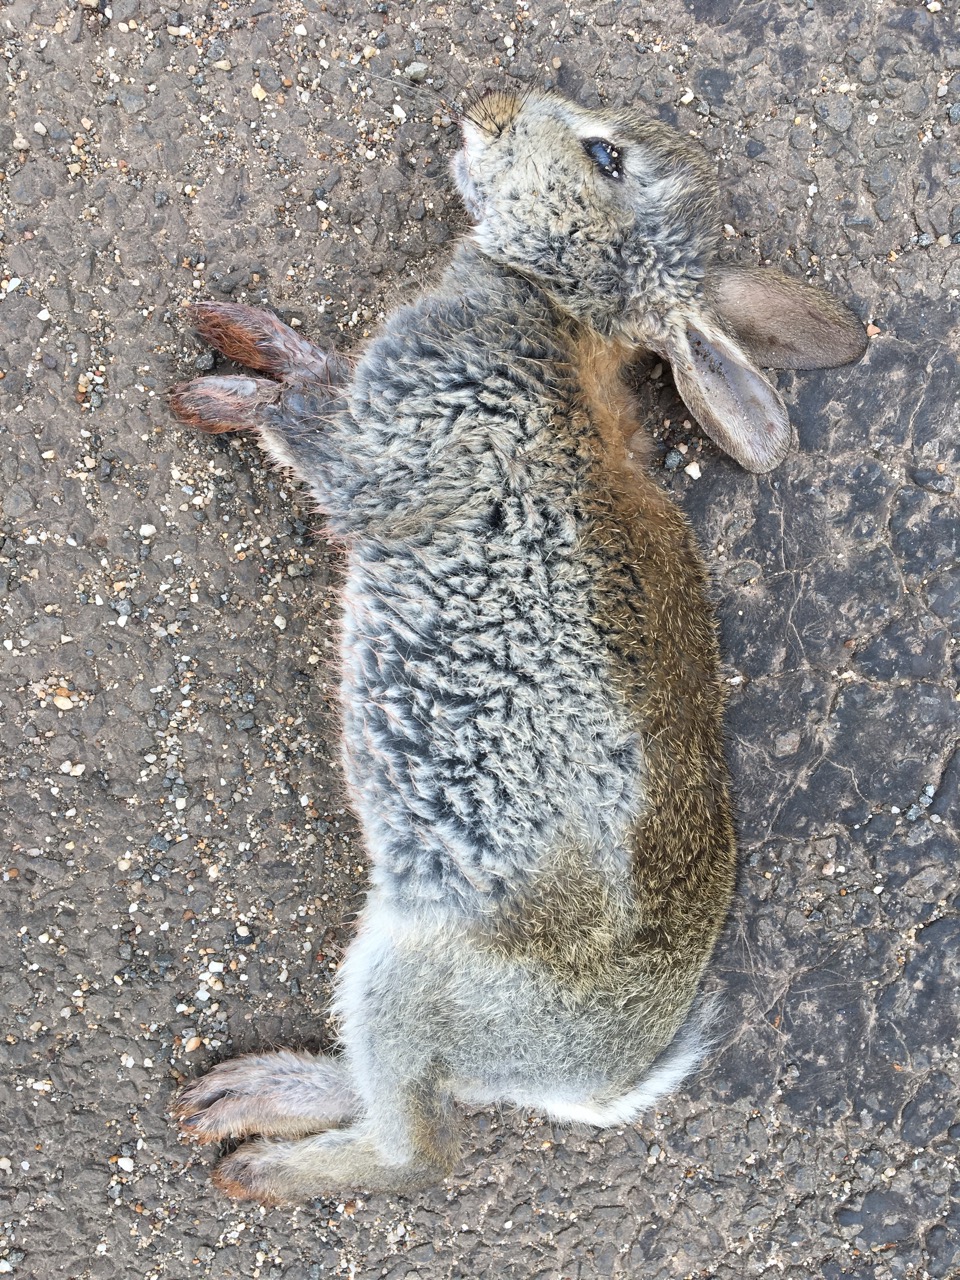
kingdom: Animalia
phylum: Chordata
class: Mammalia
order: Lagomorpha
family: Leporidae
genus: Oryctolagus
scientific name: Oryctolagus cuniculus
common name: European rabbit
